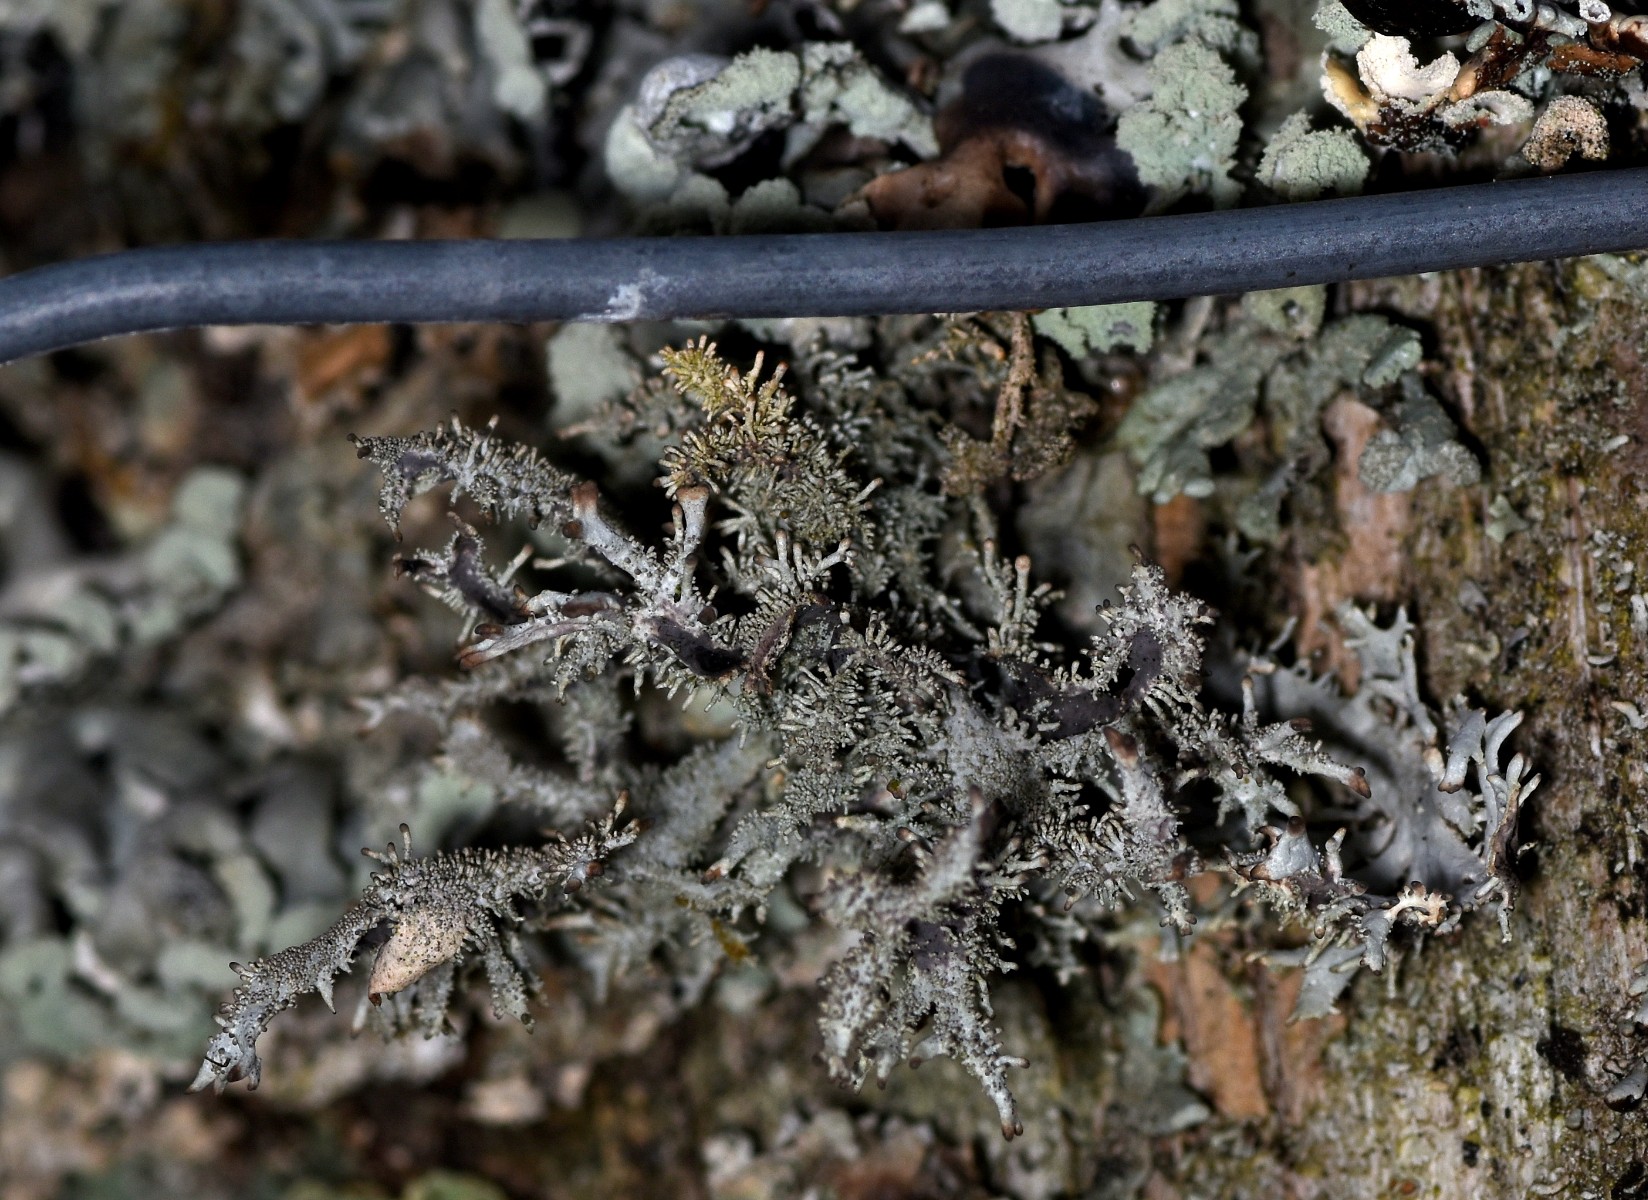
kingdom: Fungi
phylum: Ascomycota
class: Lecanoromycetes
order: Lecanorales
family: Parmeliaceae
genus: Pseudevernia
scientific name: Pseudevernia furfuracea
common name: grå fyrrelav
